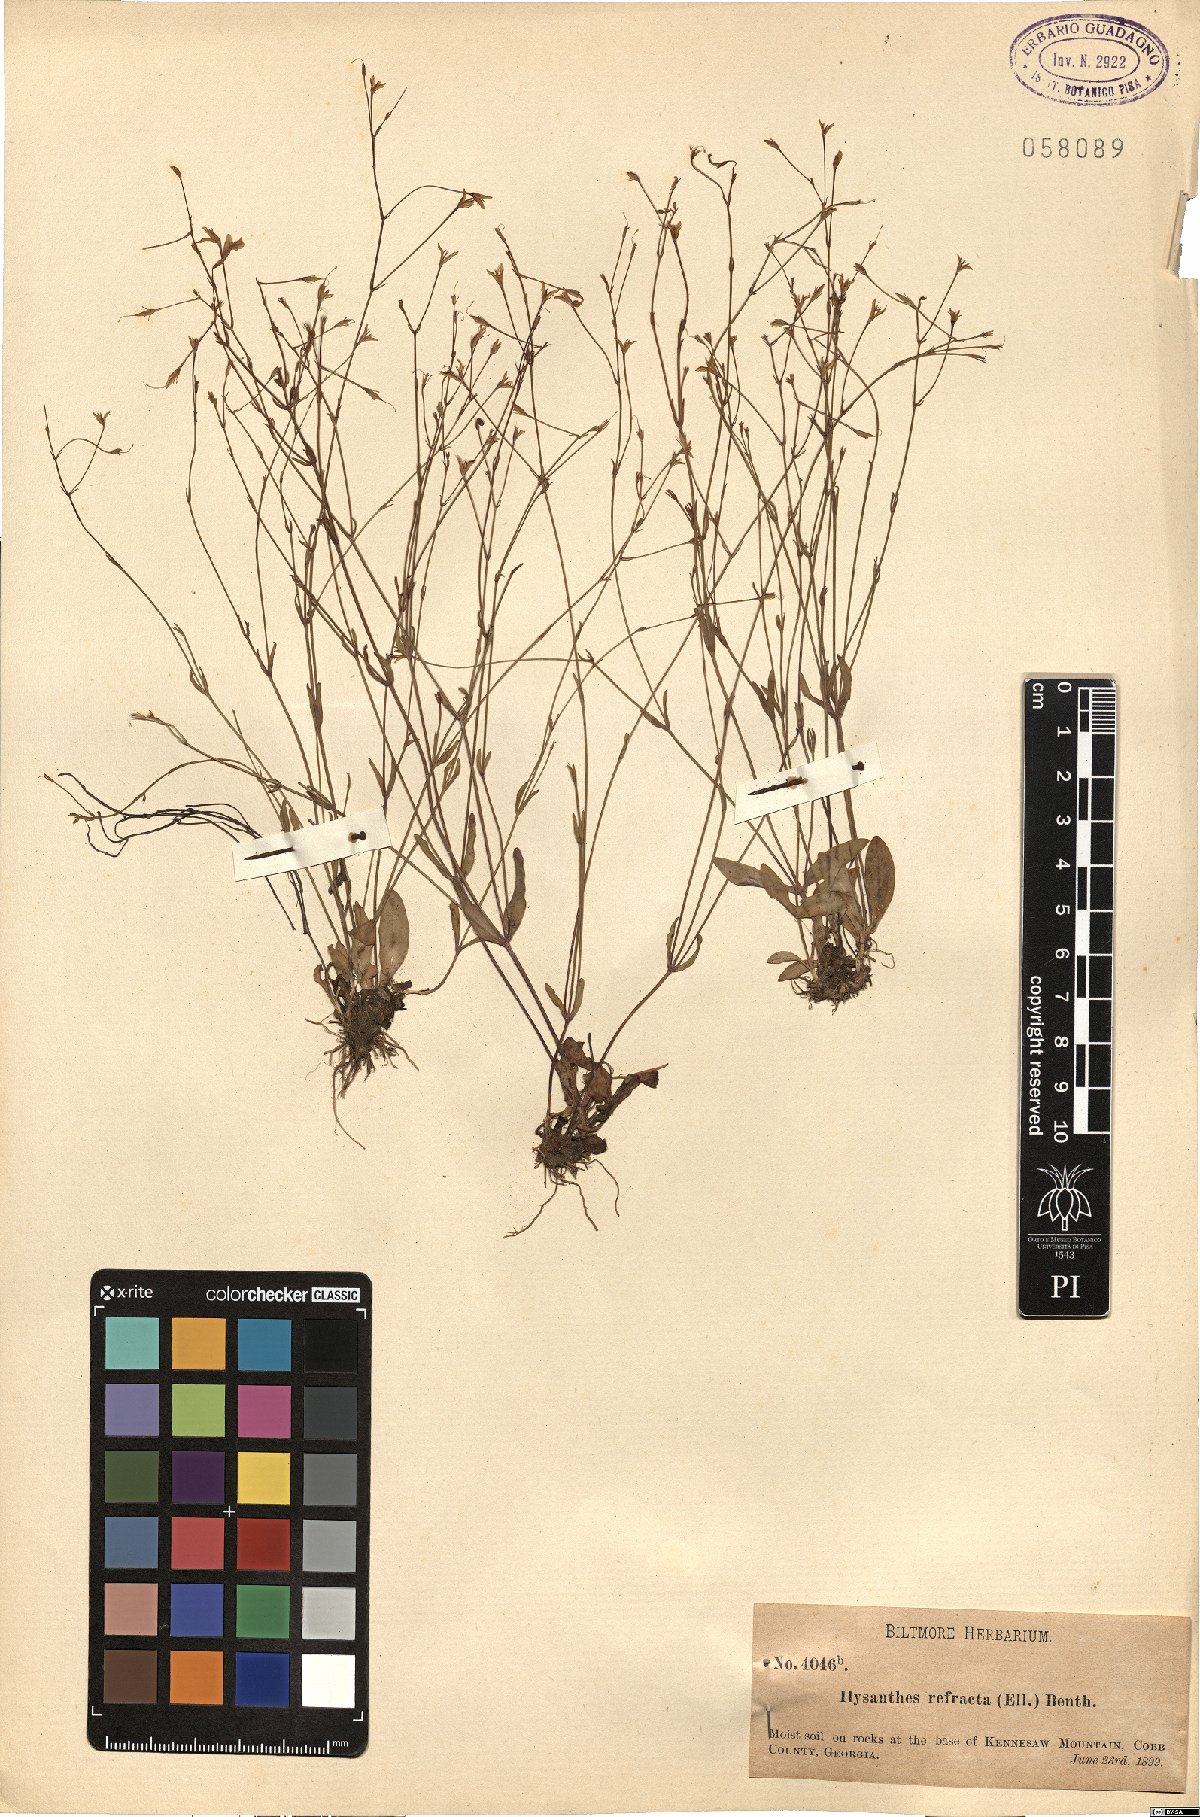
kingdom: Plantae
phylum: Tracheophyta
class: Magnoliopsida
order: Lamiales
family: Linderniaceae
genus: Lindernia
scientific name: Lindernia monticola
